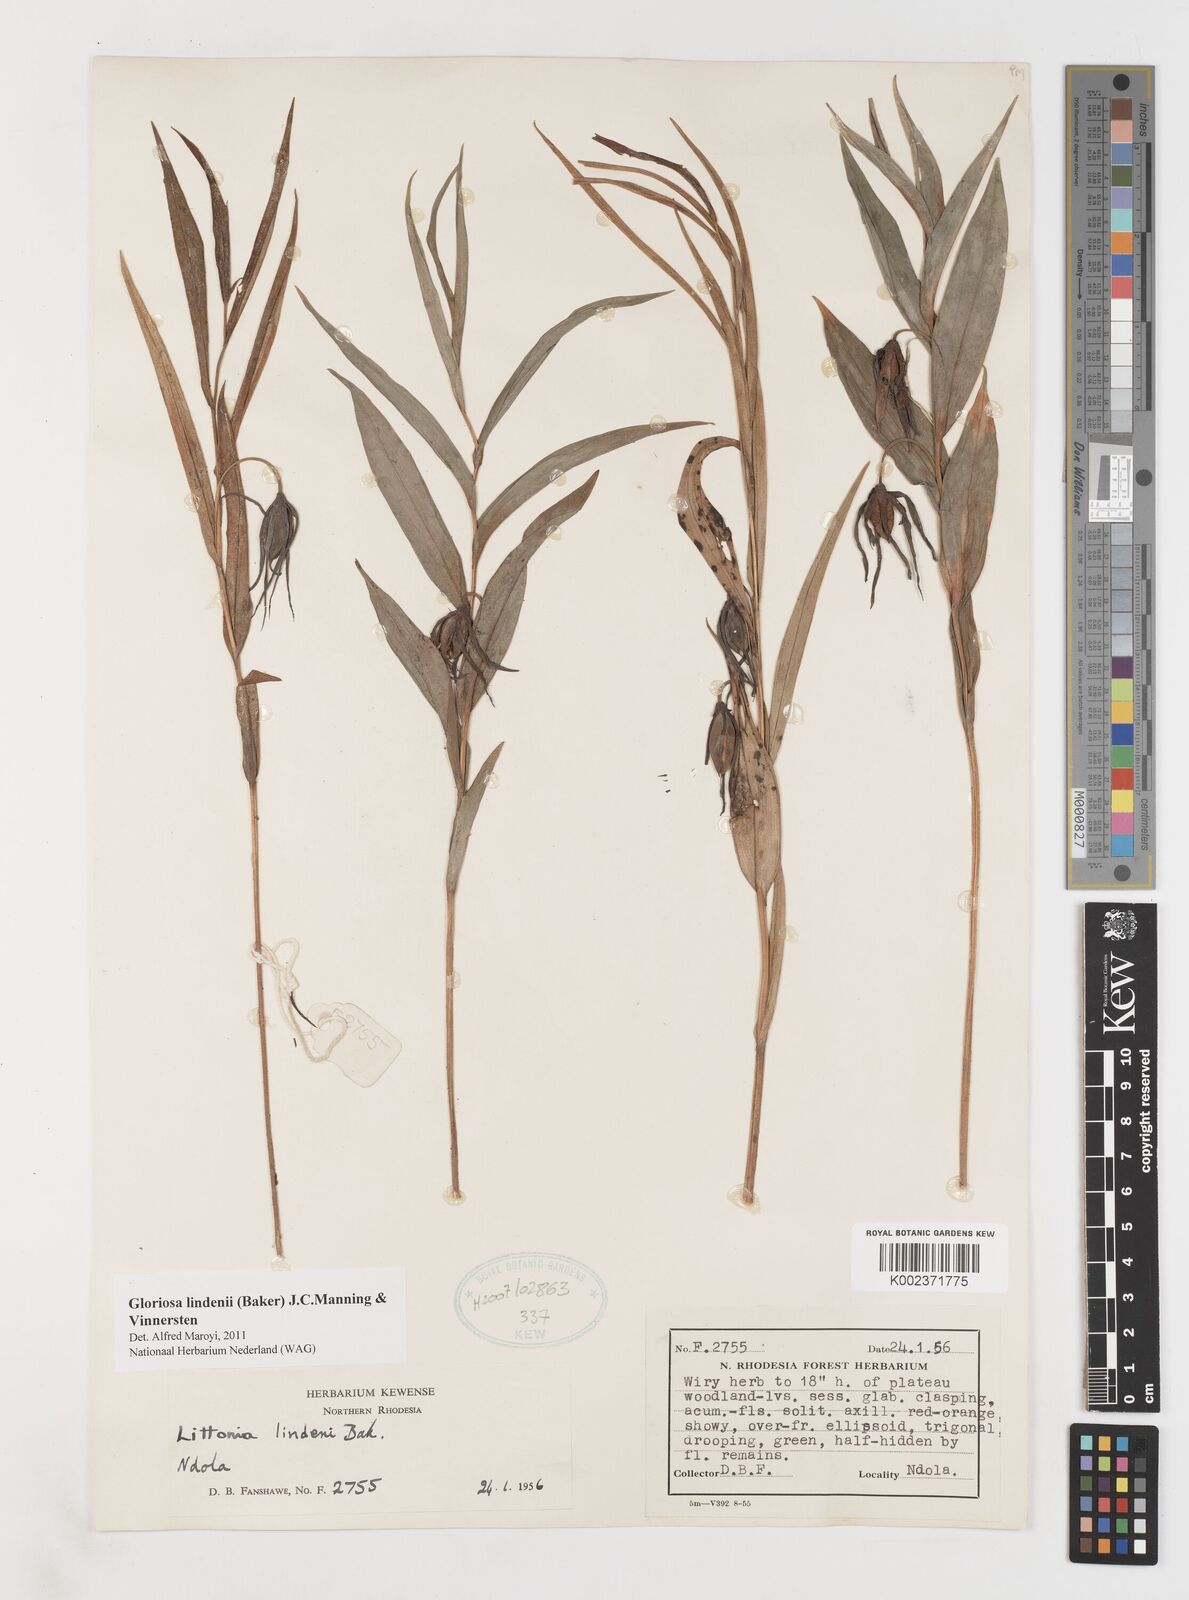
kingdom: Plantae
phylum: Tracheophyta
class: Liliopsida
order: Liliales
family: Colchicaceae
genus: Gloriosa
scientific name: Gloriosa lindenii
